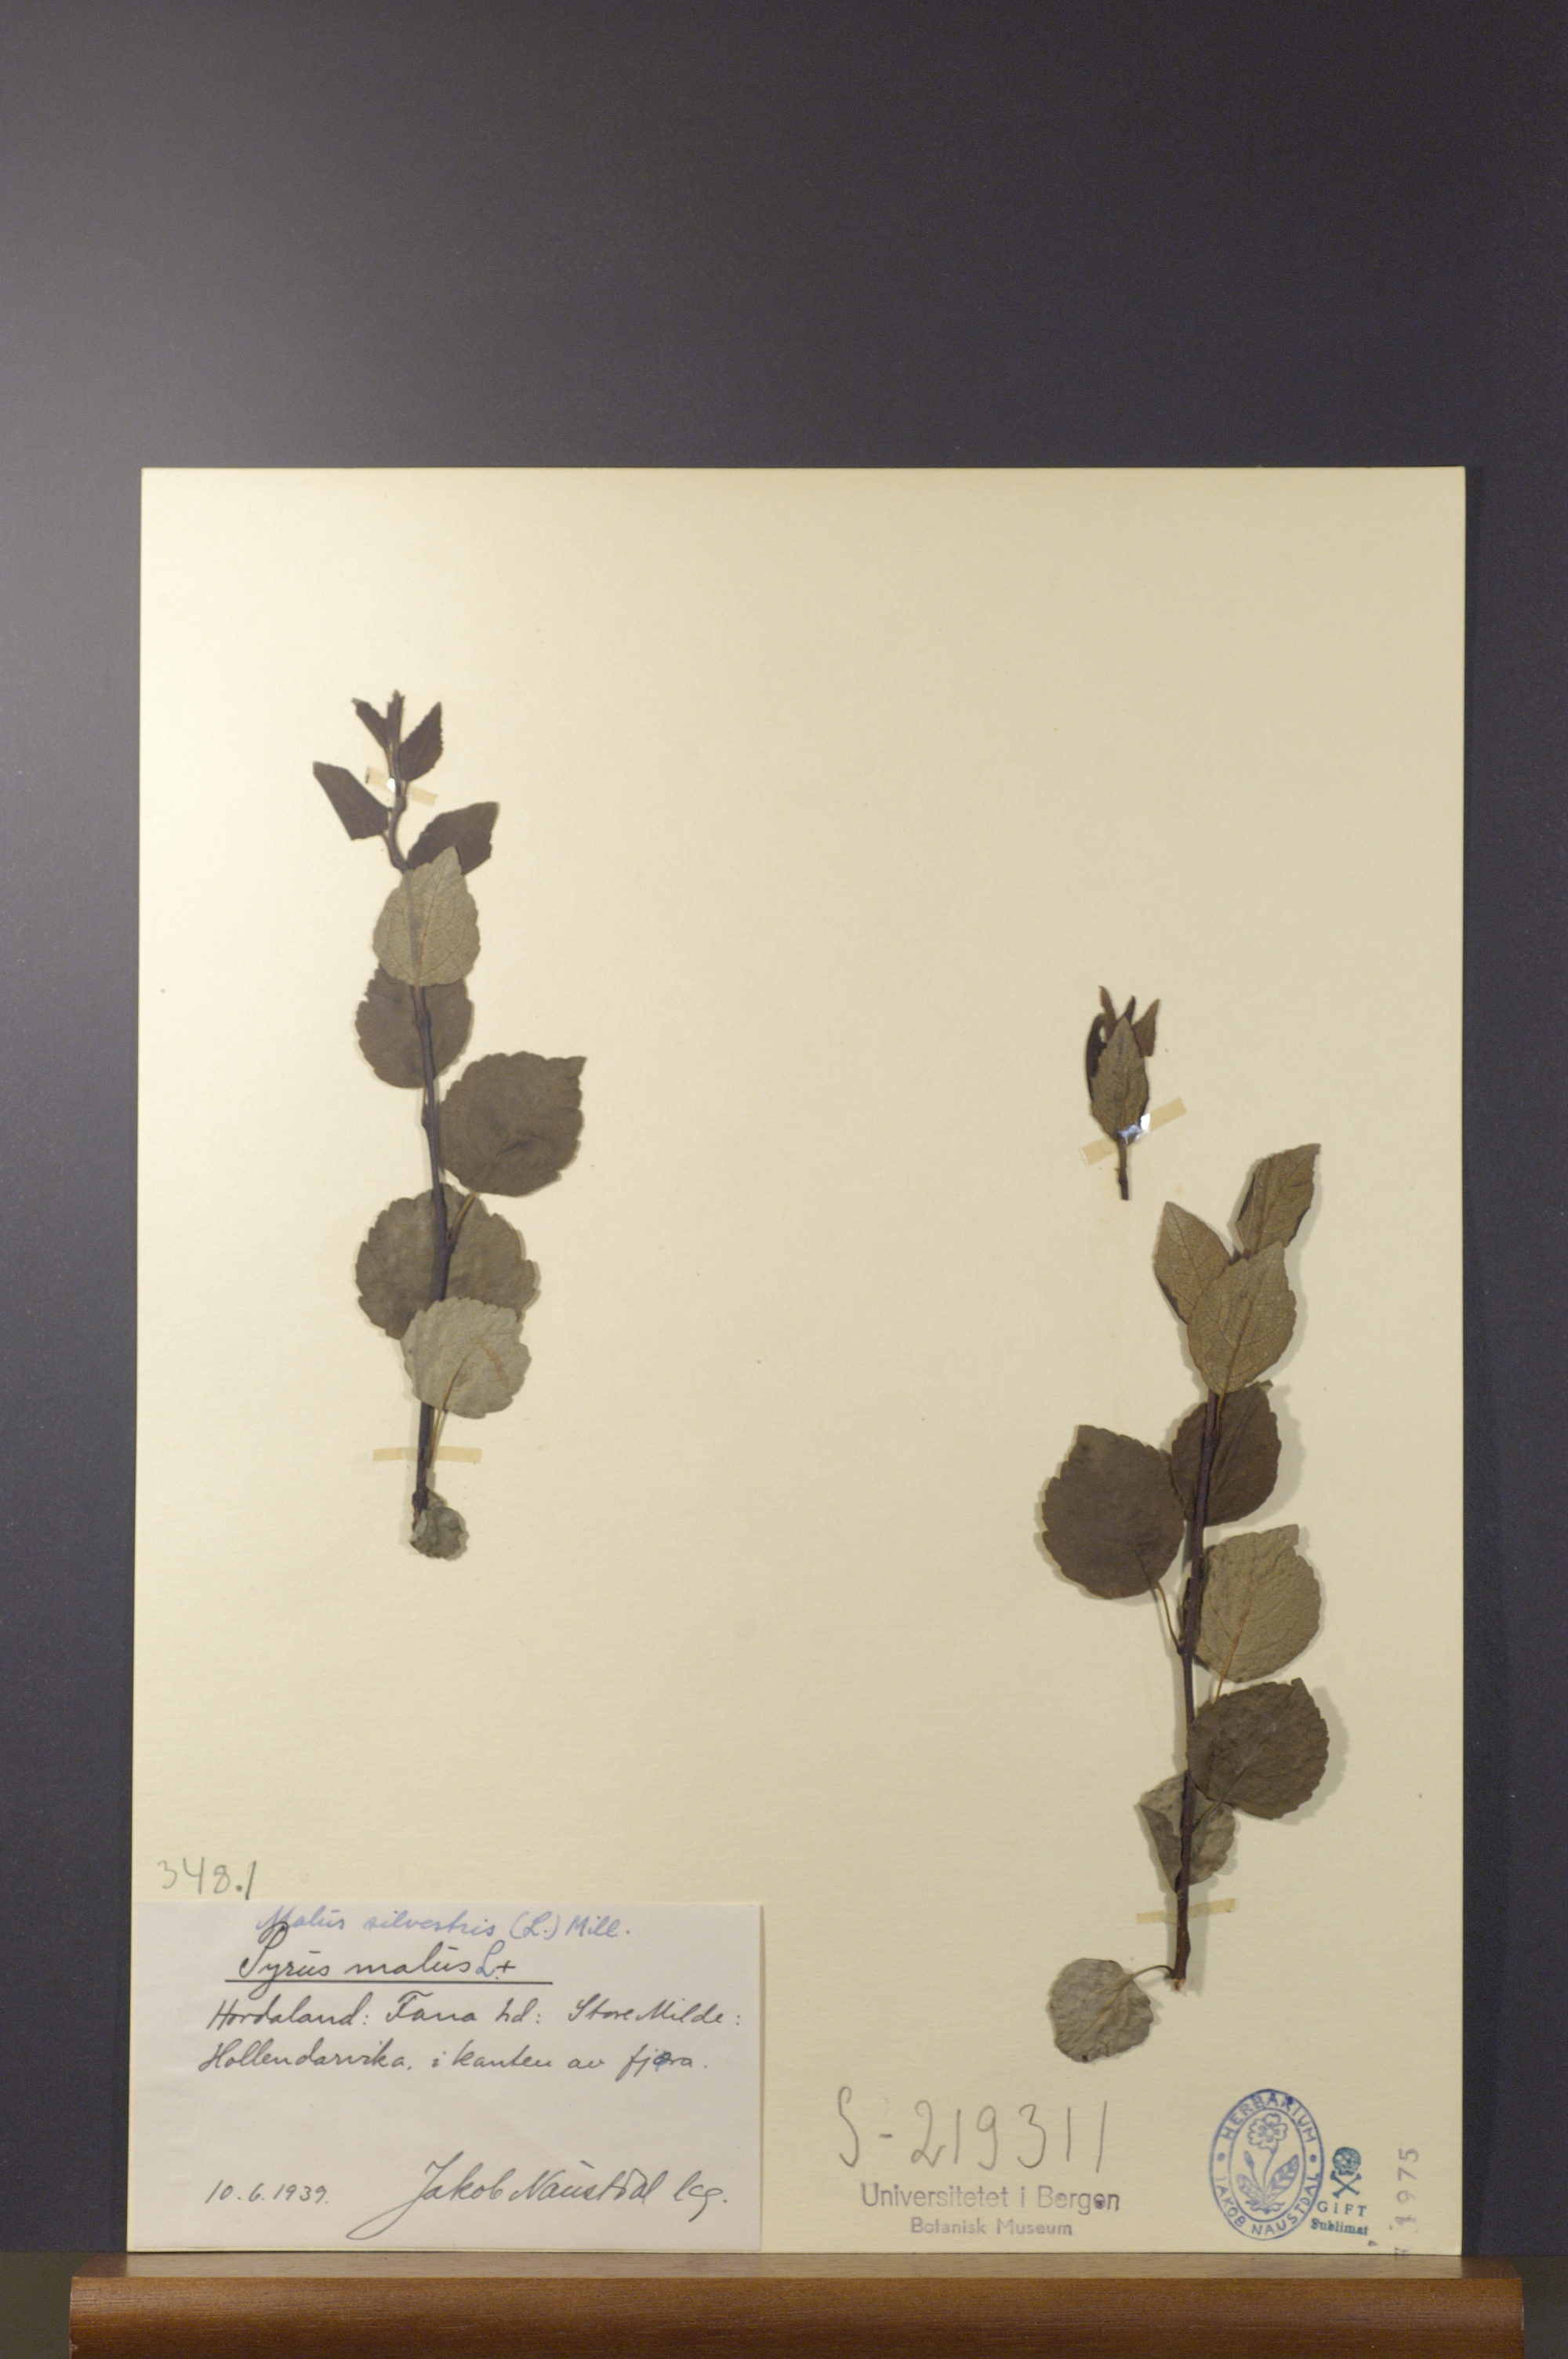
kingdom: Plantae
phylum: Tracheophyta
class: Magnoliopsida
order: Rosales
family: Rosaceae
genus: Malus
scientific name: Malus sylvestris
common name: Crab apple
